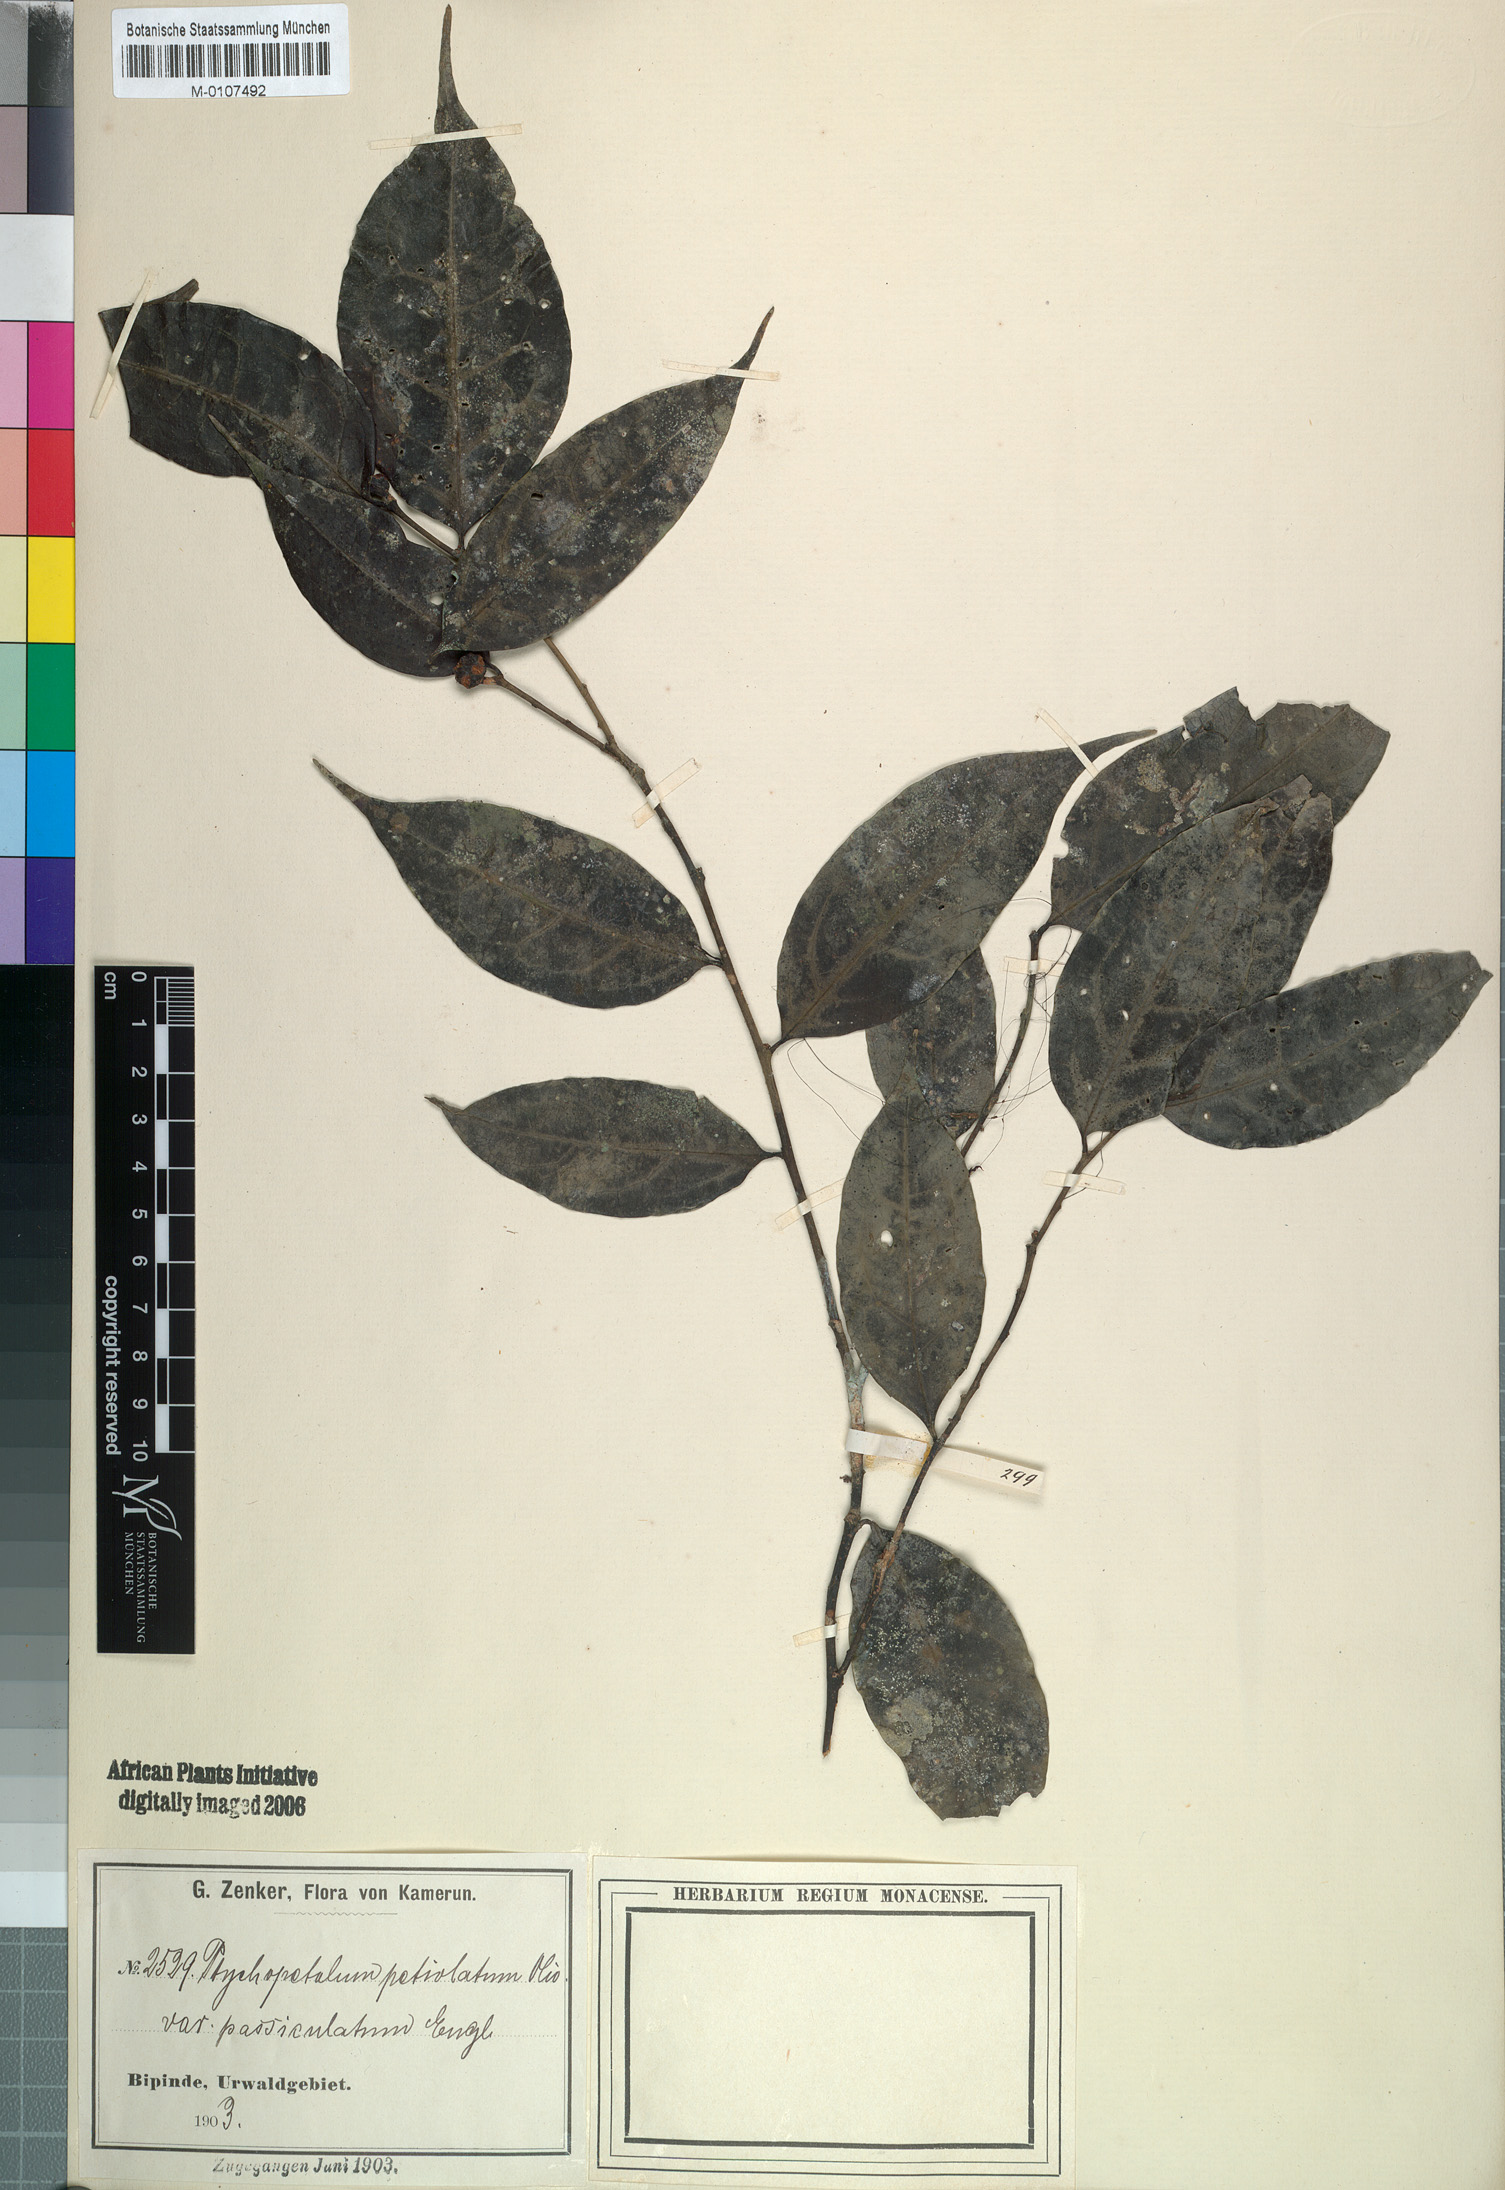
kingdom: Plantae
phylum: Tracheophyta
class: Magnoliopsida
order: Santalales
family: Olacaceae
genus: Ptychopetalum
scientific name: Ptychopetalum petiolatum
